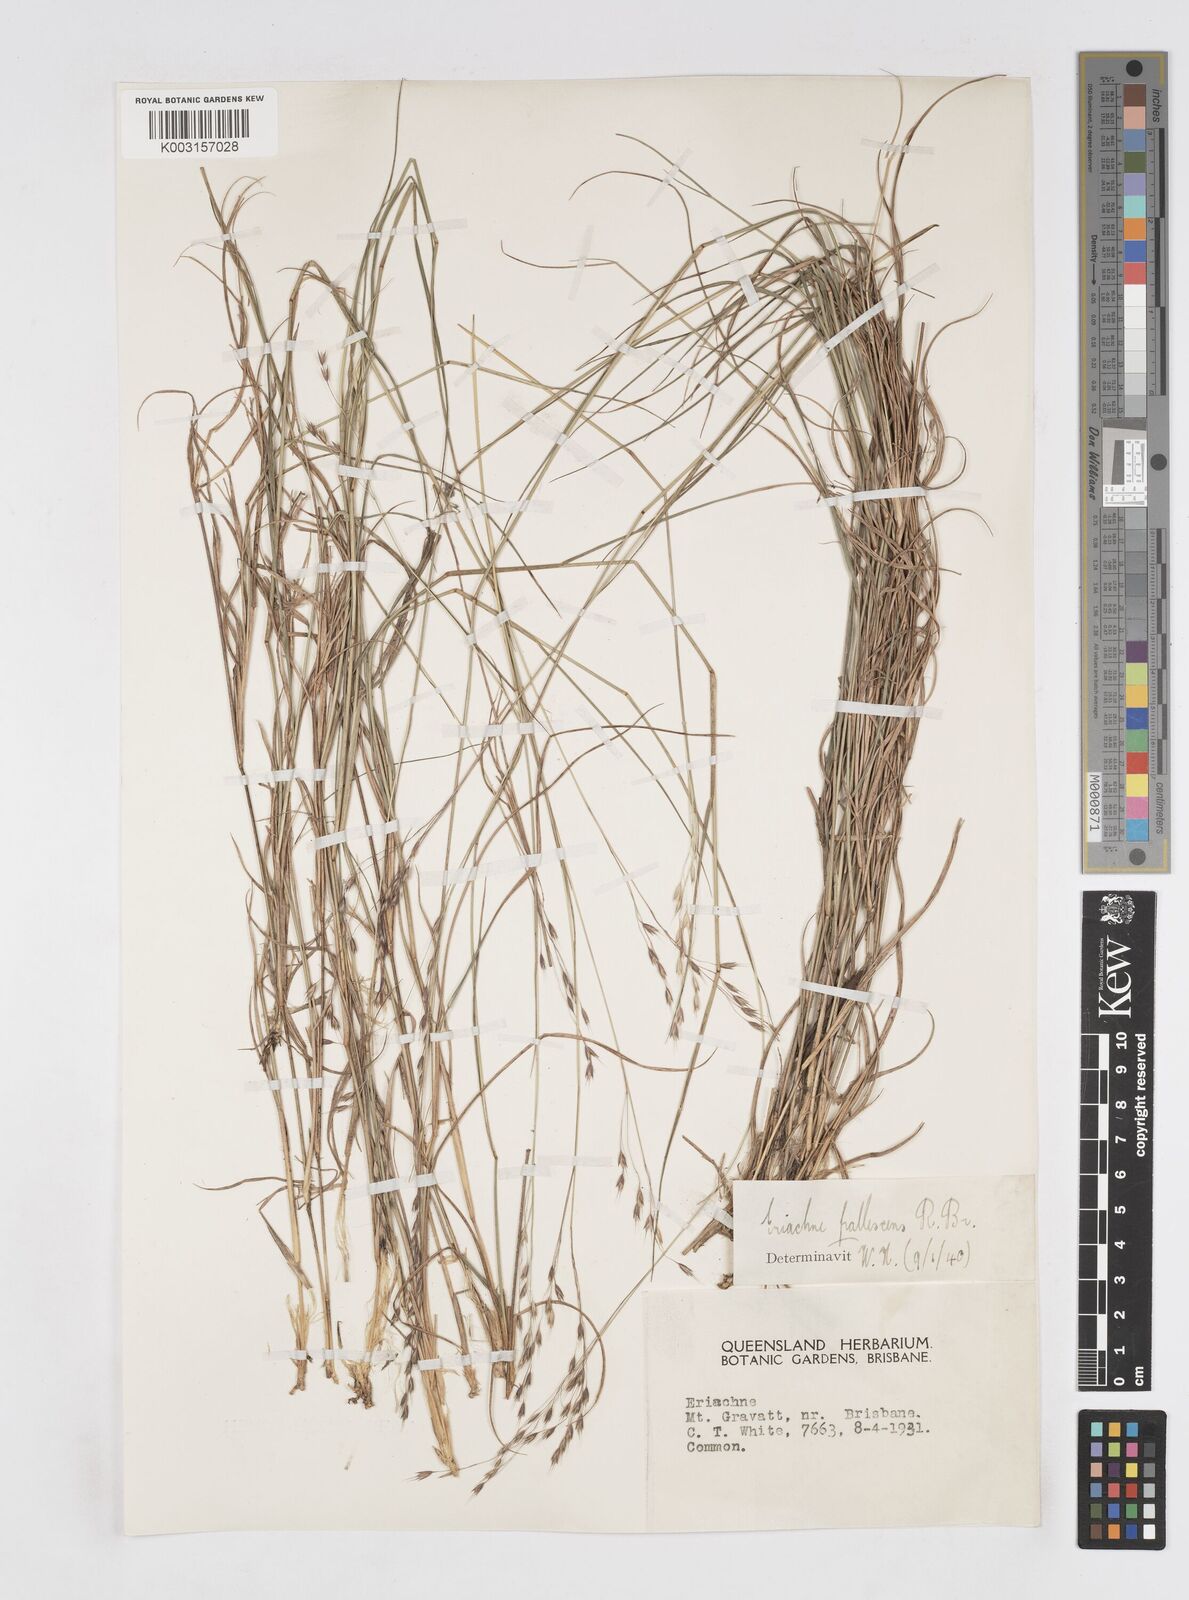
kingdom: Plantae
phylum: Tracheophyta
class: Liliopsida
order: Poales
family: Poaceae
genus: Eriachne
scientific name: Eriachne pallescens
